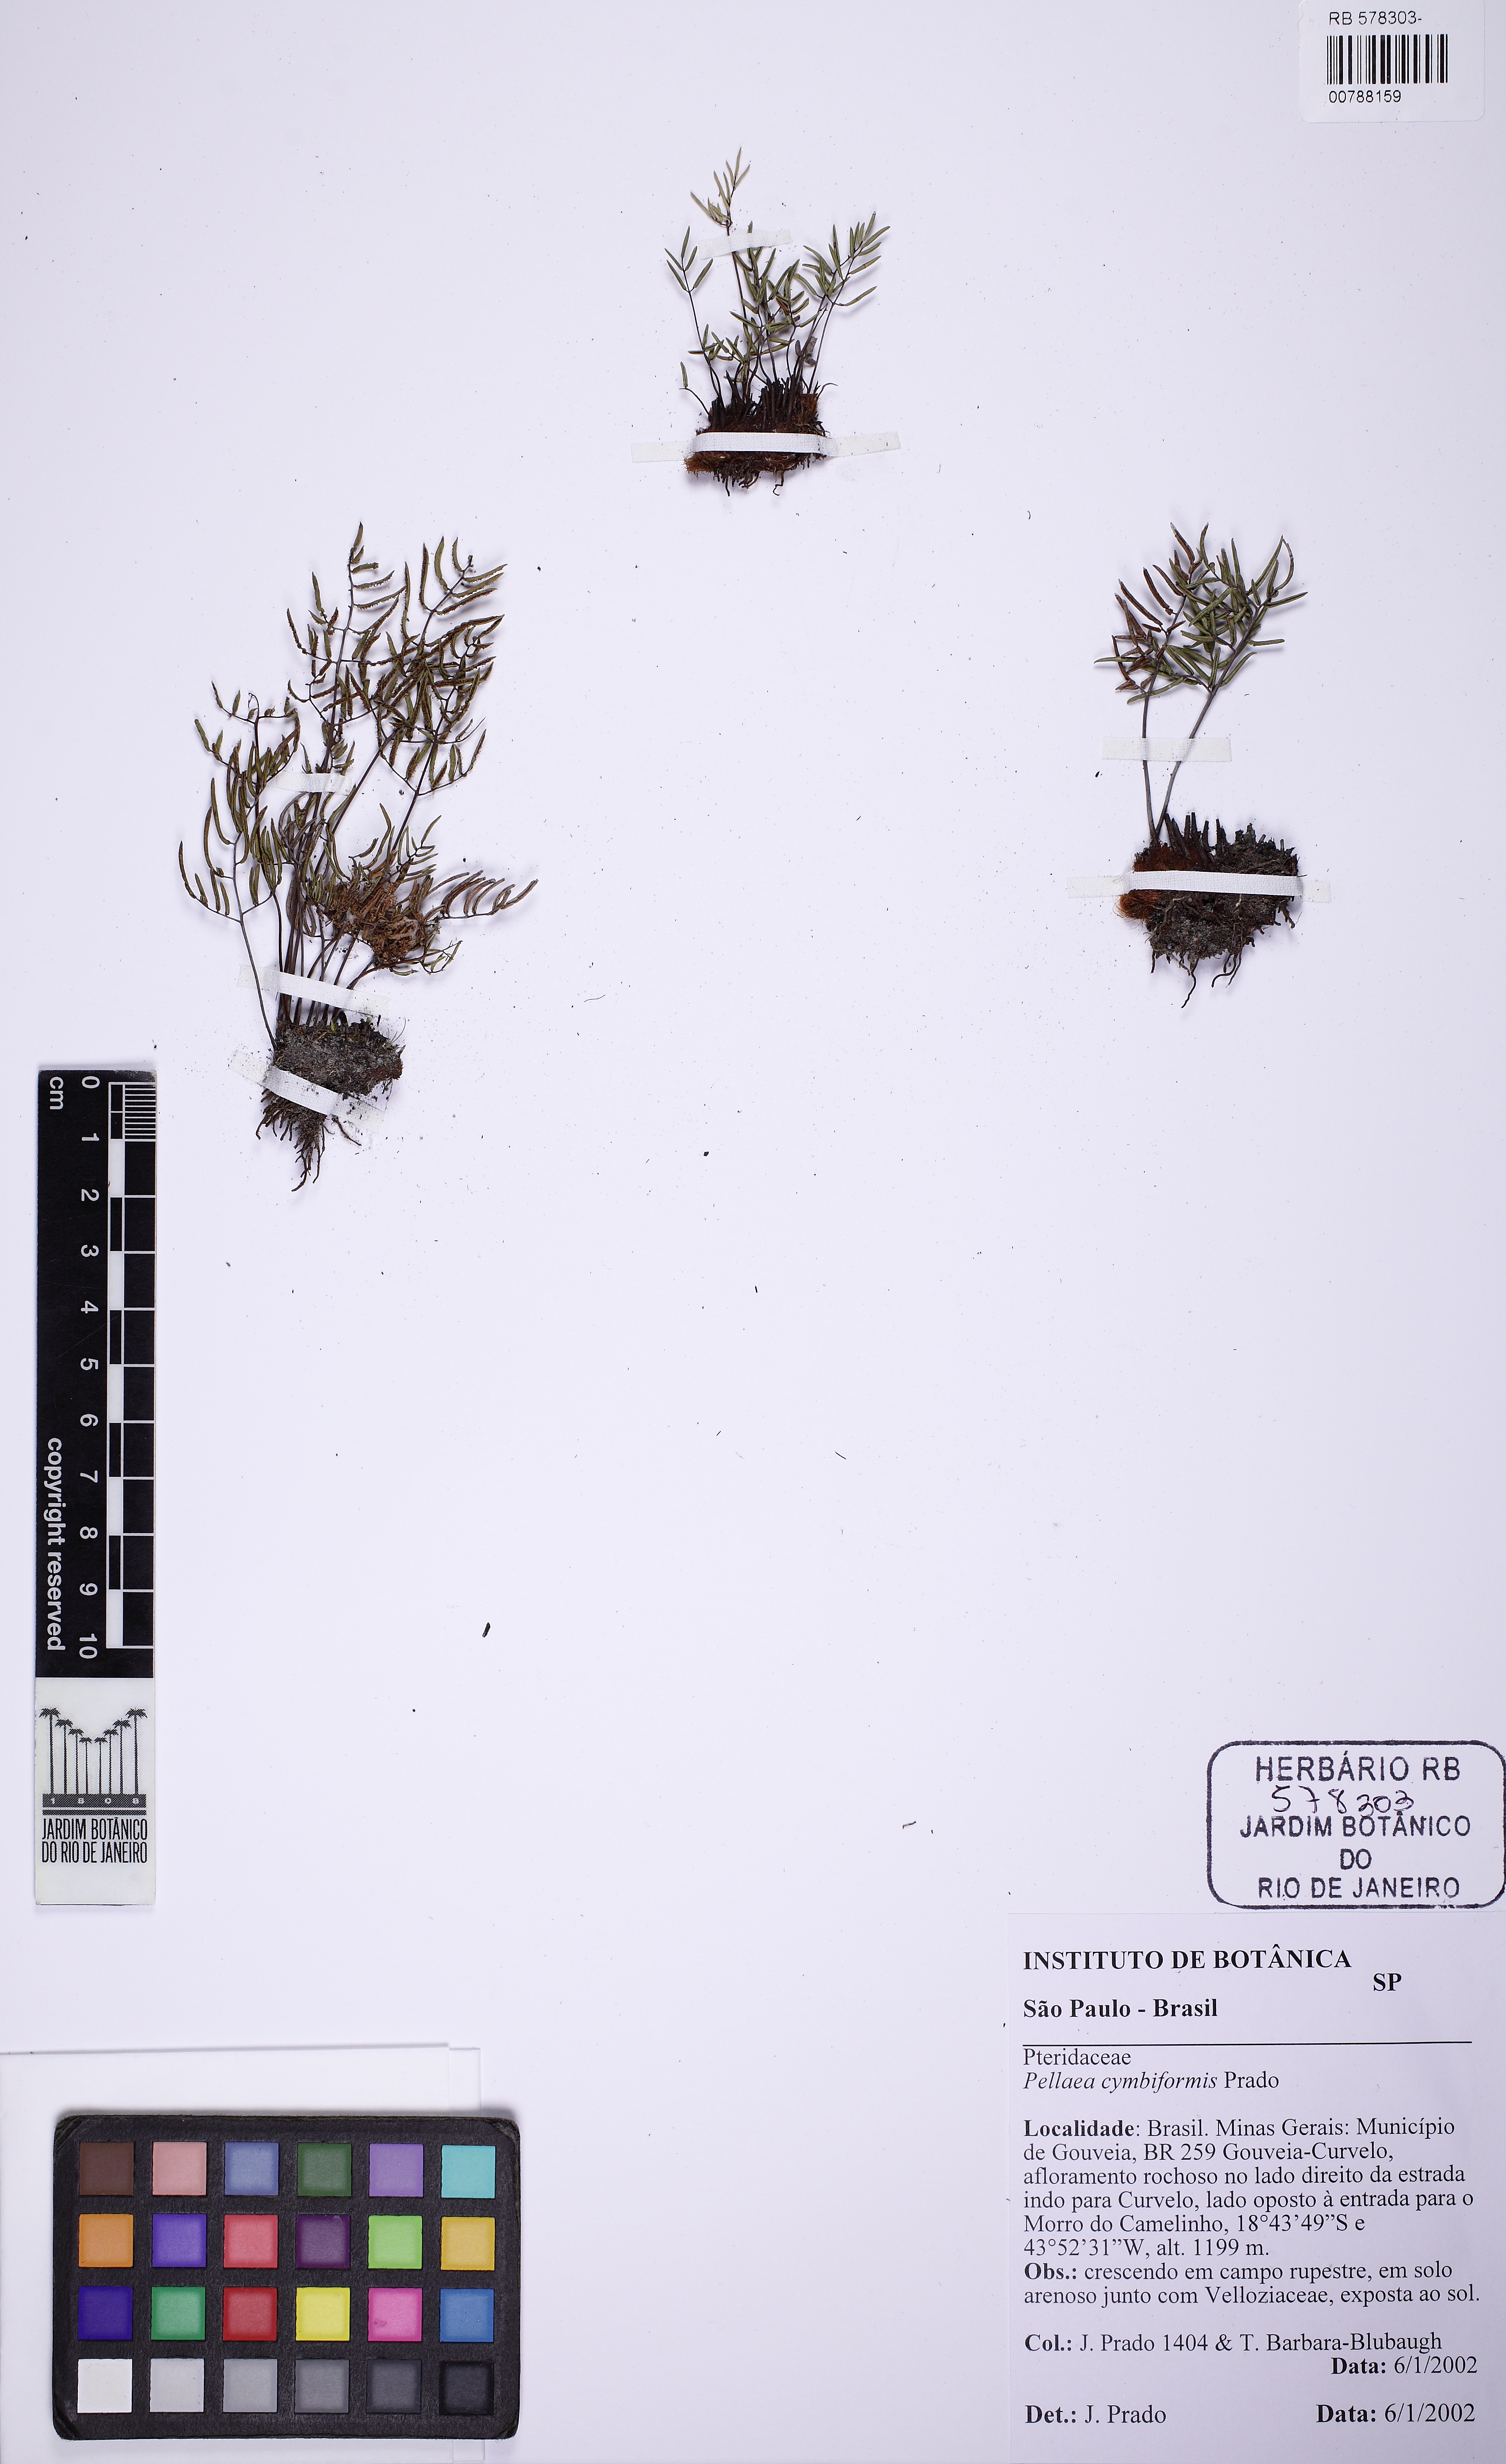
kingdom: Plantae
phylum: Tracheophyta
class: Polypodiopsida
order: Polypodiales
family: Pteridaceae
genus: Ormopteris
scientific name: Ormopteris cymbiformis
